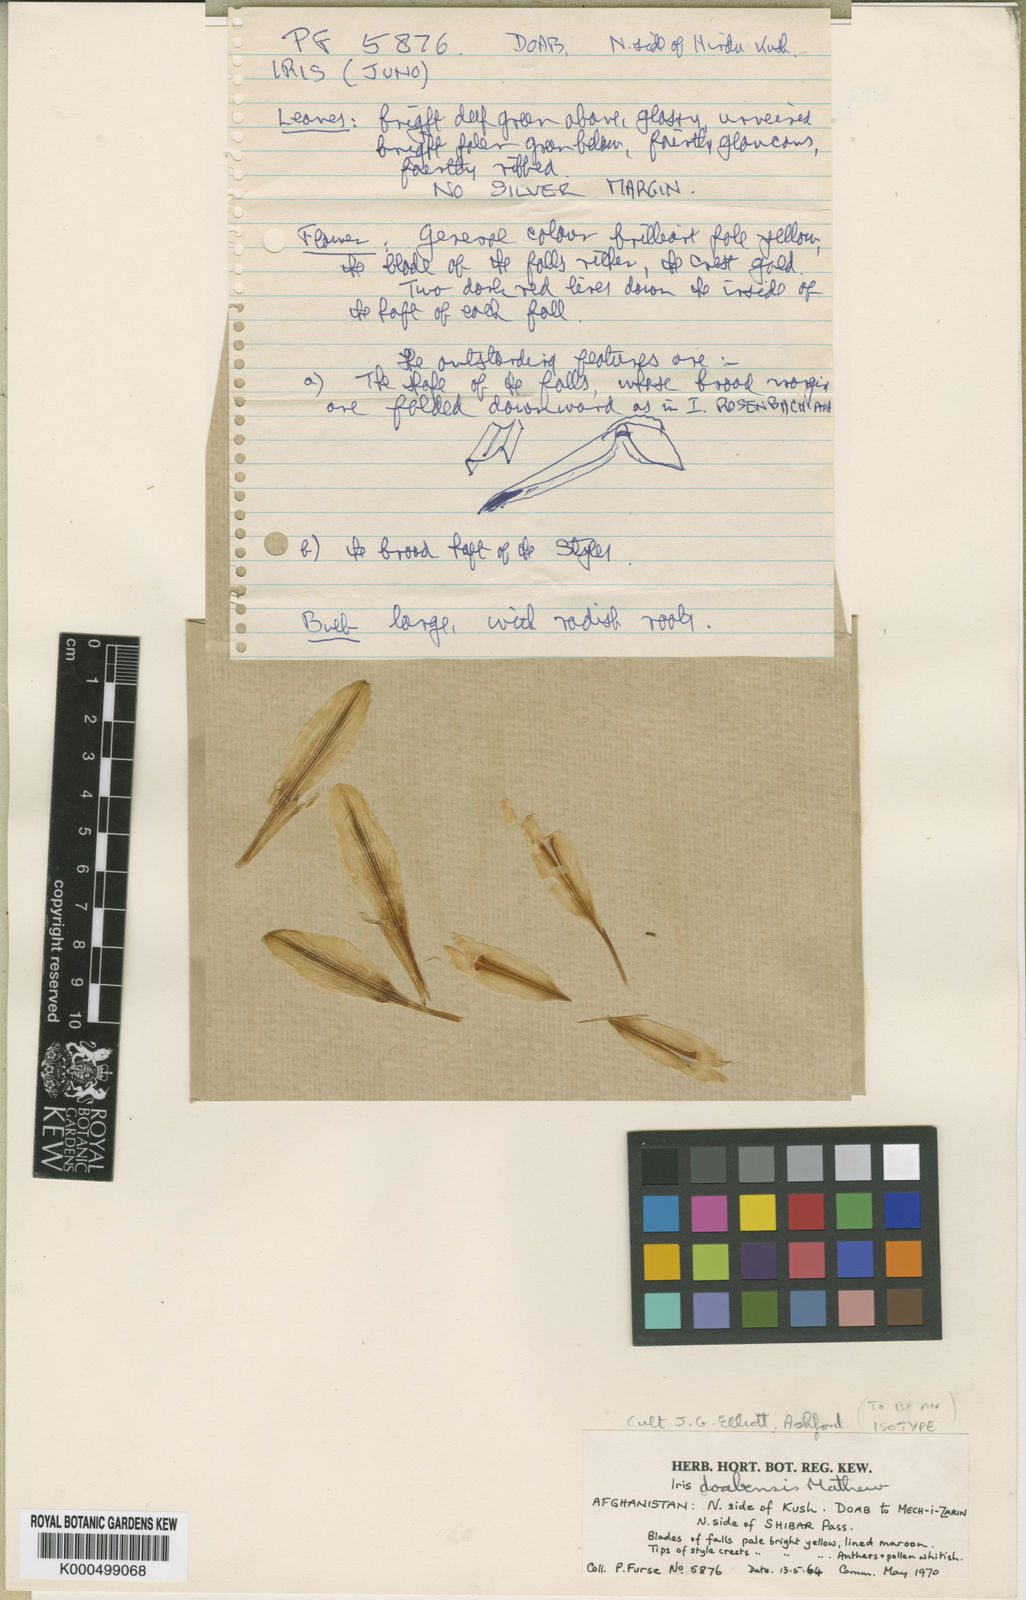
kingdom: Plantae
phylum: Tracheophyta
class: Liliopsida
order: Asparagales
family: Iridaceae
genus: Iris
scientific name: Iris doabensis
